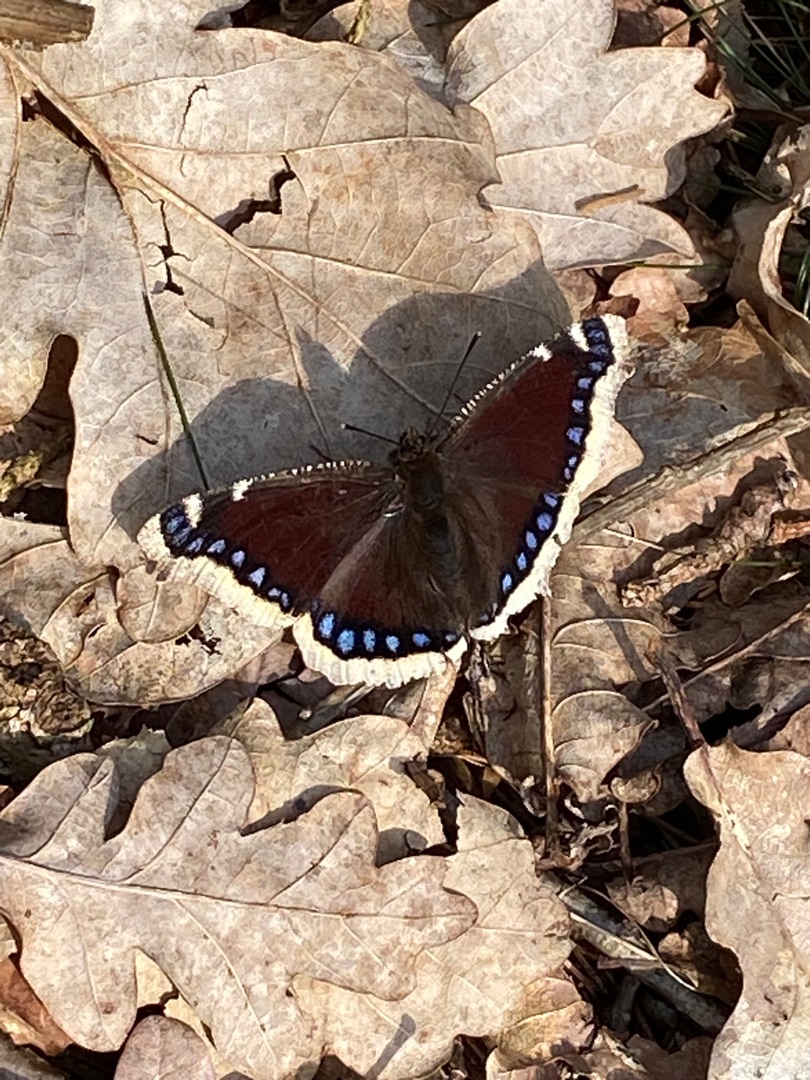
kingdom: Animalia
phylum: Arthropoda
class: Insecta
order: Lepidoptera
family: Nymphalidae
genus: Nymphalis
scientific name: Nymphalis antiopa
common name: Sørgekåbe
